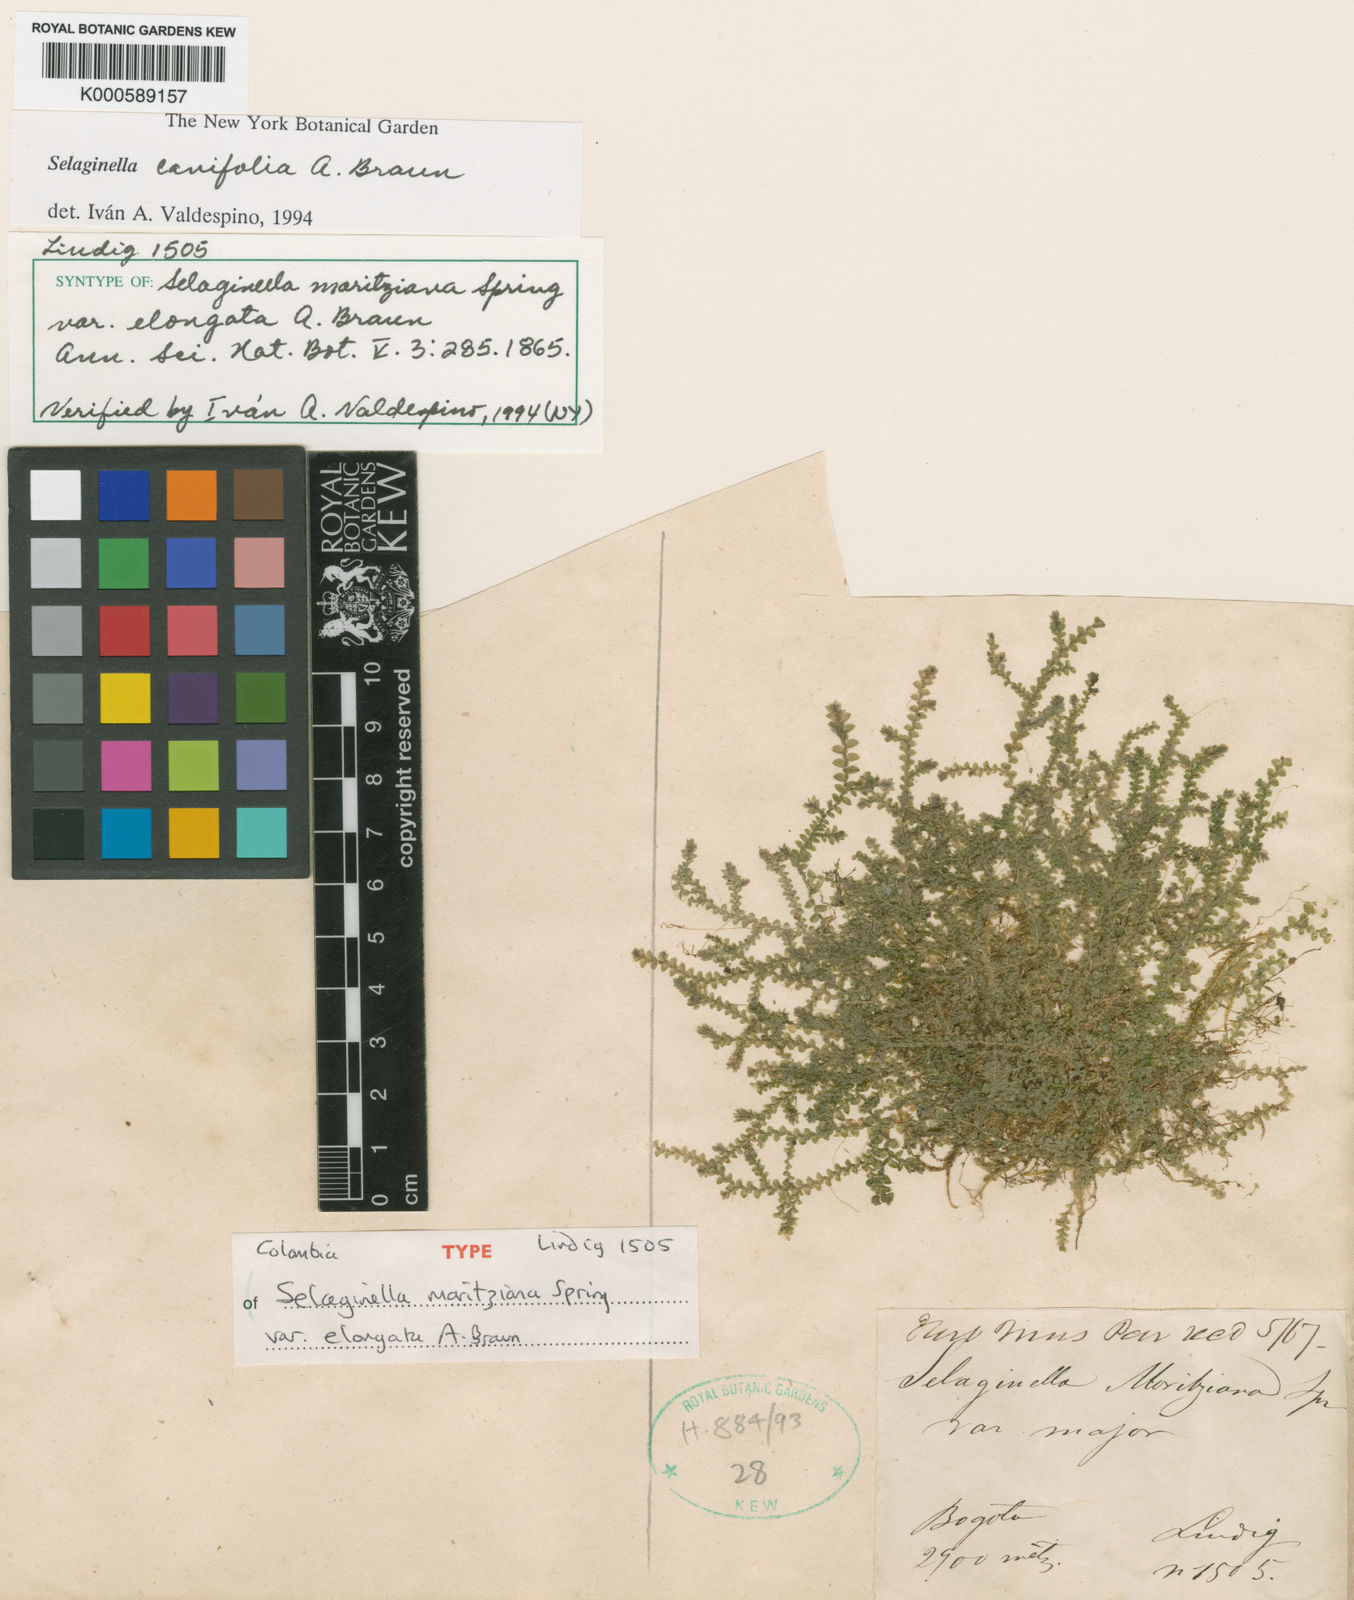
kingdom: Plantae
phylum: Tracheophyta
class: Lycopodiopsida
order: Selaginellales
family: Selaginellaceae
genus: Selaginella
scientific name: Selaginella cavifolia
